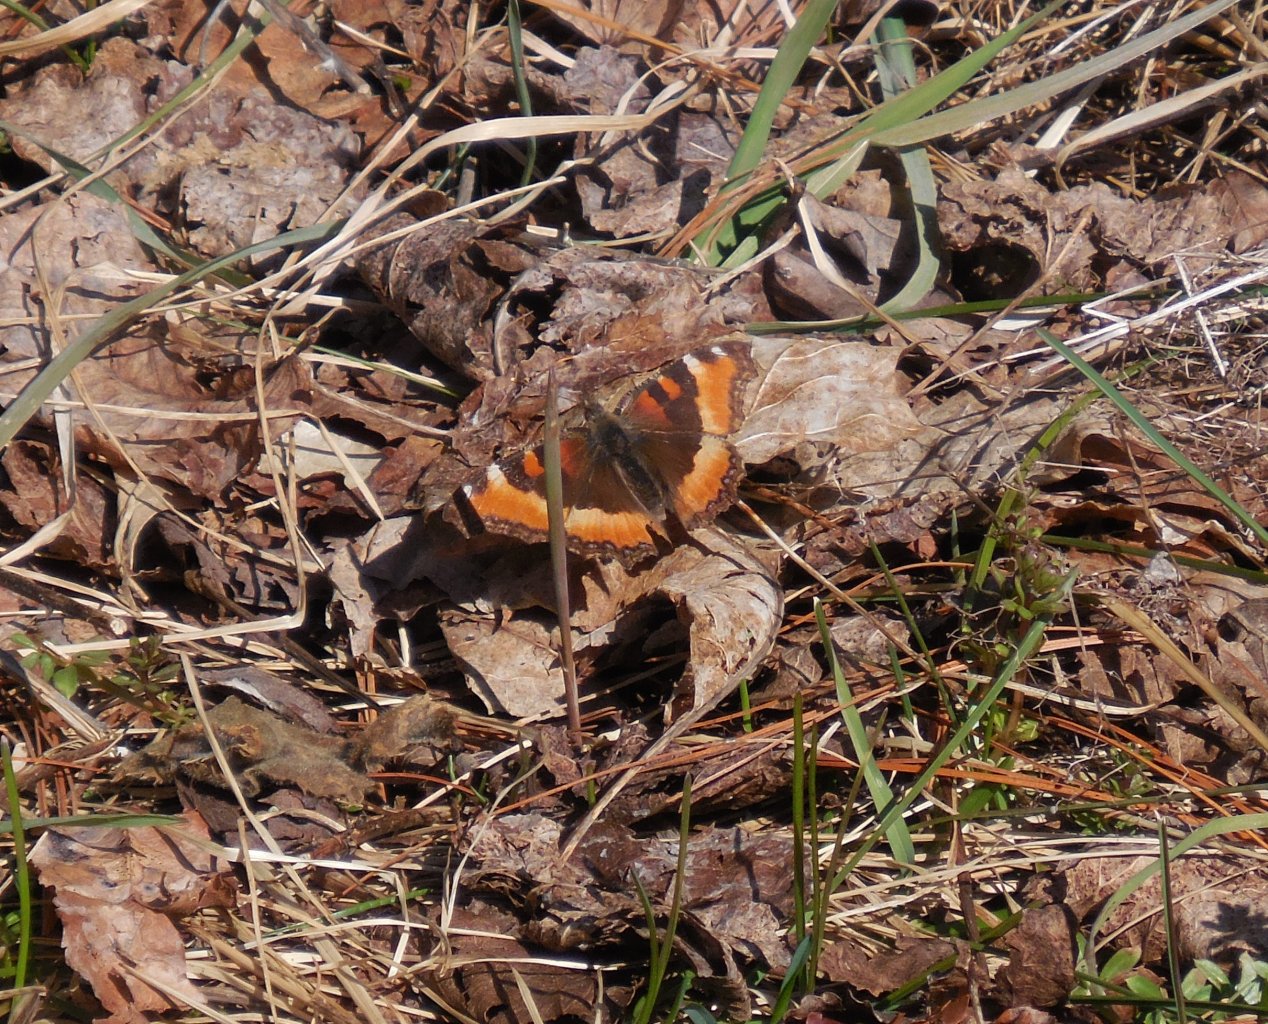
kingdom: Animalia
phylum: Arthropoda
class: Insecta
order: Lepidoptera
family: Nymphalidae
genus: Aglais
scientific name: Aglais milberti
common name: Milbert's Tortoiseshell
